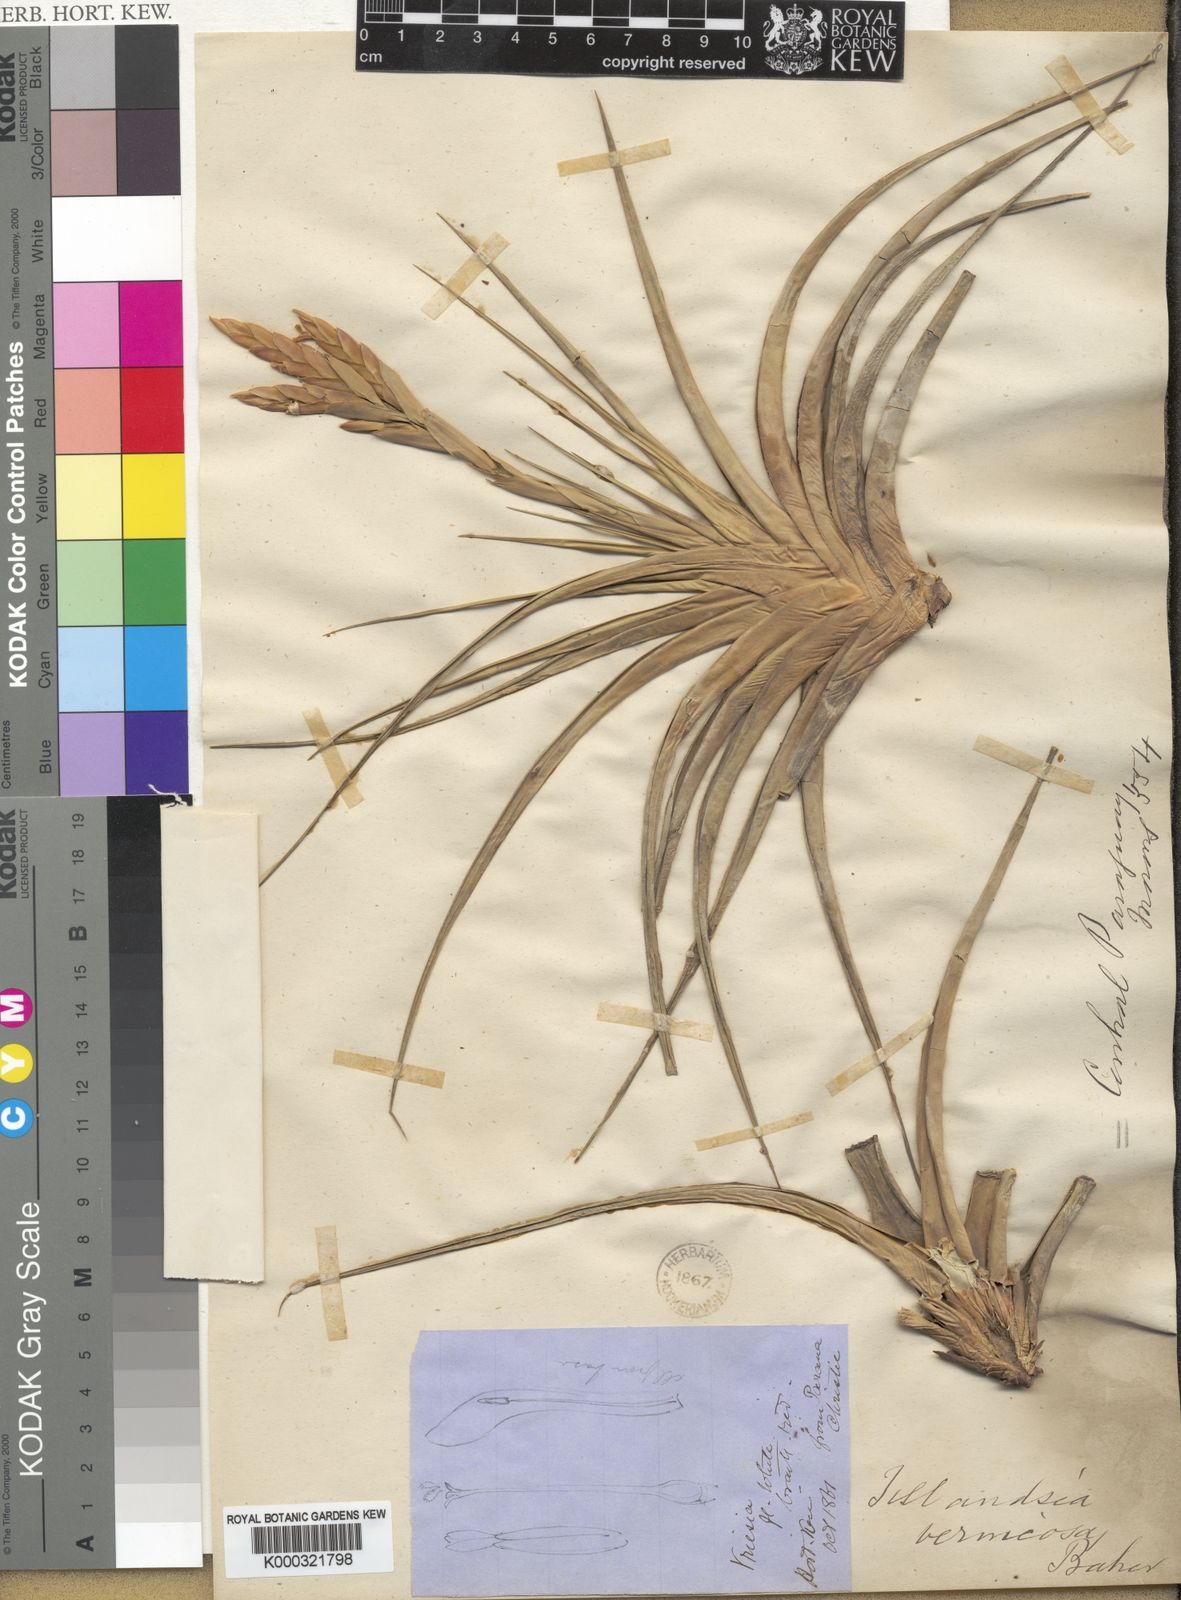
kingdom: Plantae
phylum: Tracheophyta
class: Liliopsida
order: Poales
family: Bromeliaceae
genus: Tillandsia
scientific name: Tillandsia vernicosa
